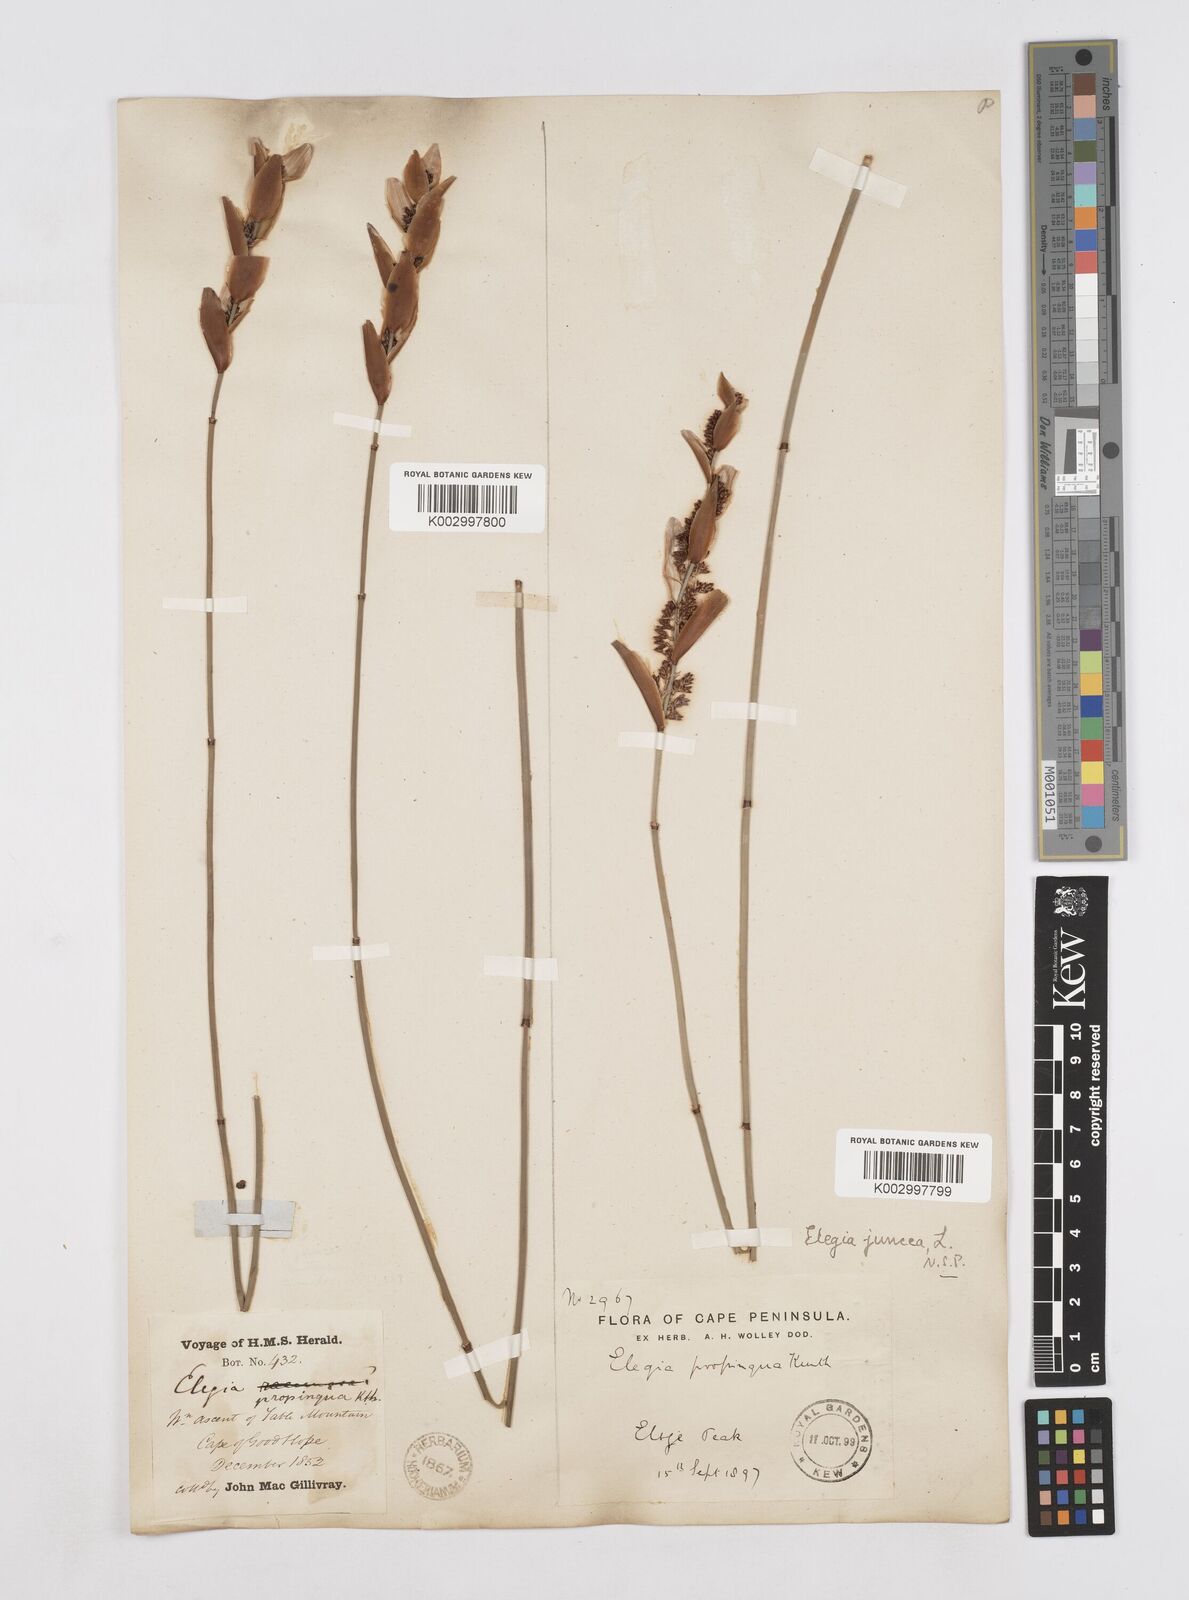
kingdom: Plantae
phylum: Tracheophyta
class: Liliopsida
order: Poales
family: Restionaceae
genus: Elegia
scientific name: Elegia juncea
